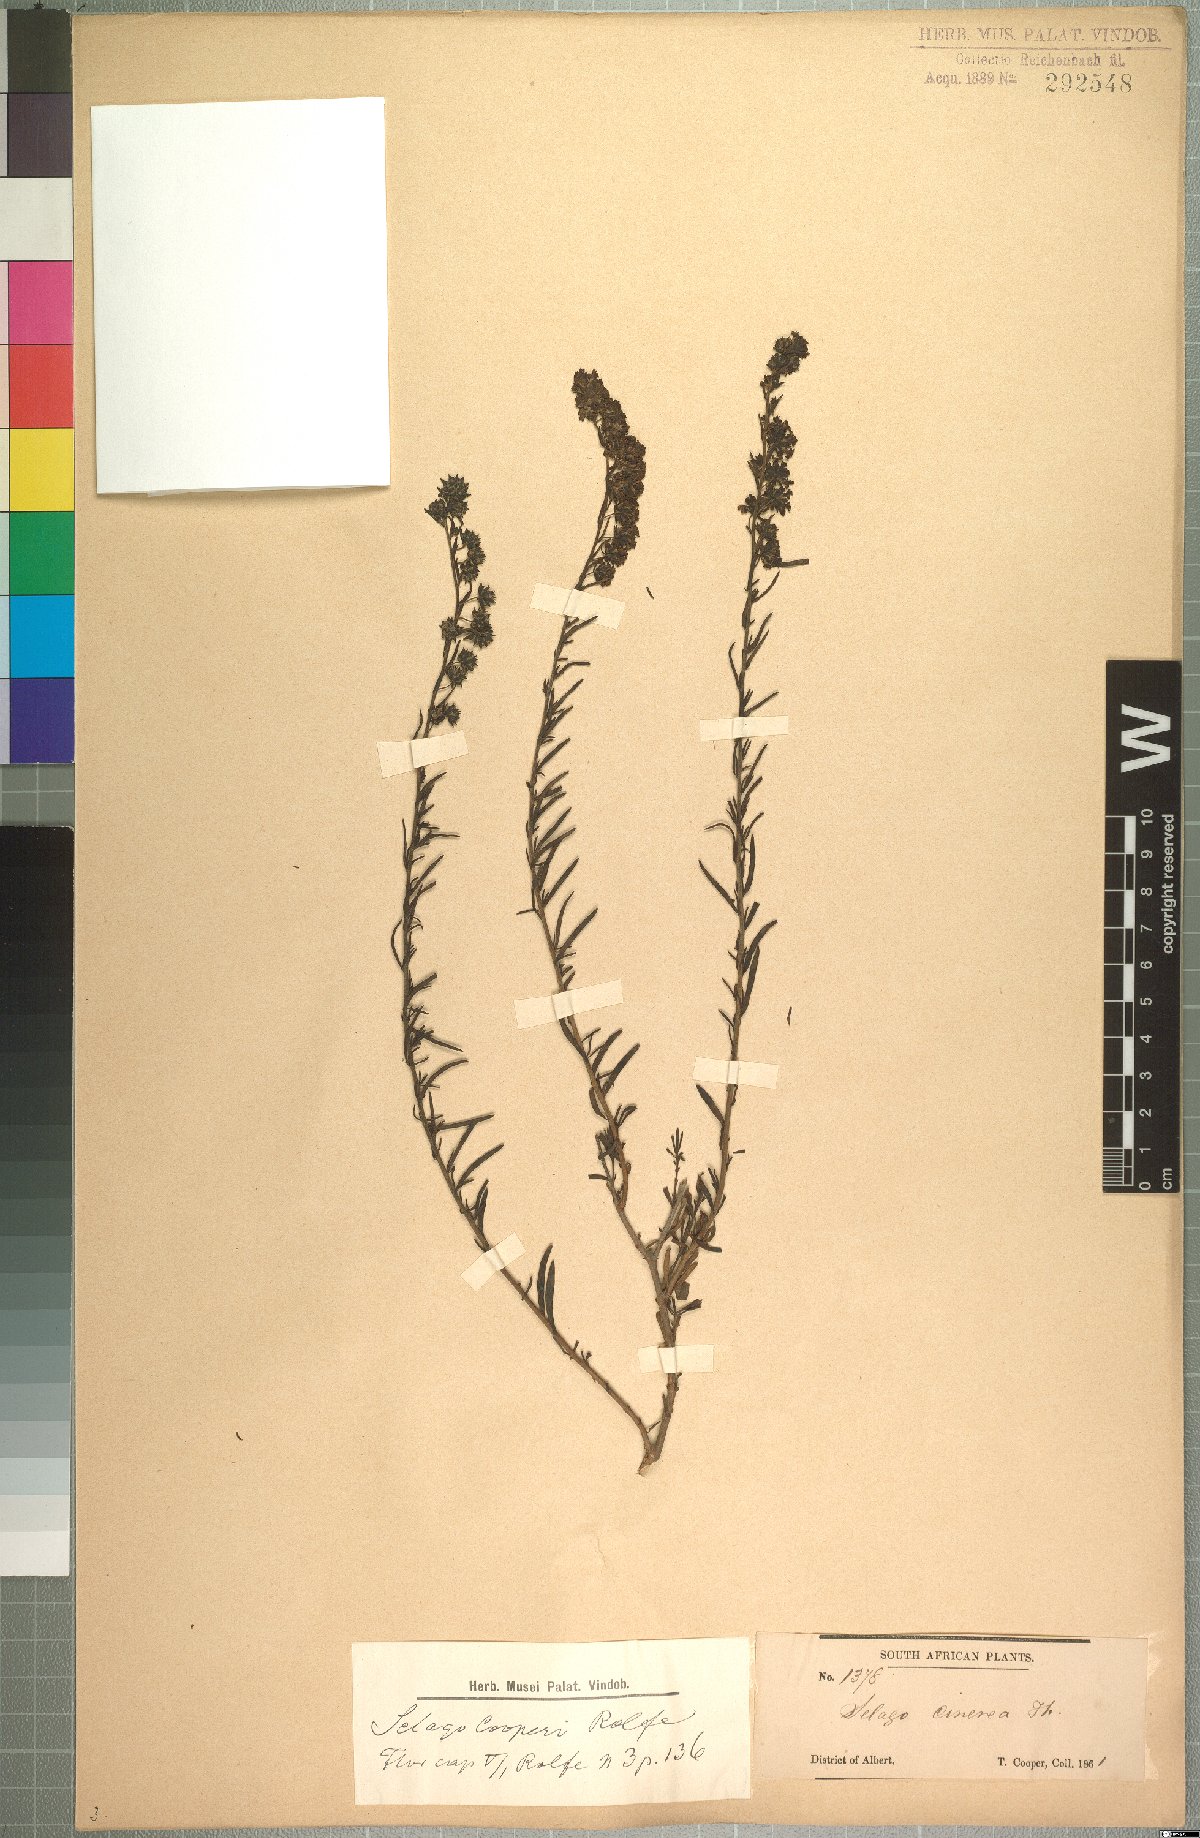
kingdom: Plantae
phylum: Tracheophyta
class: Magnoliopsida
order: Lamiales
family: Scrophulariaceae
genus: Selago
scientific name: Selago galpinii
